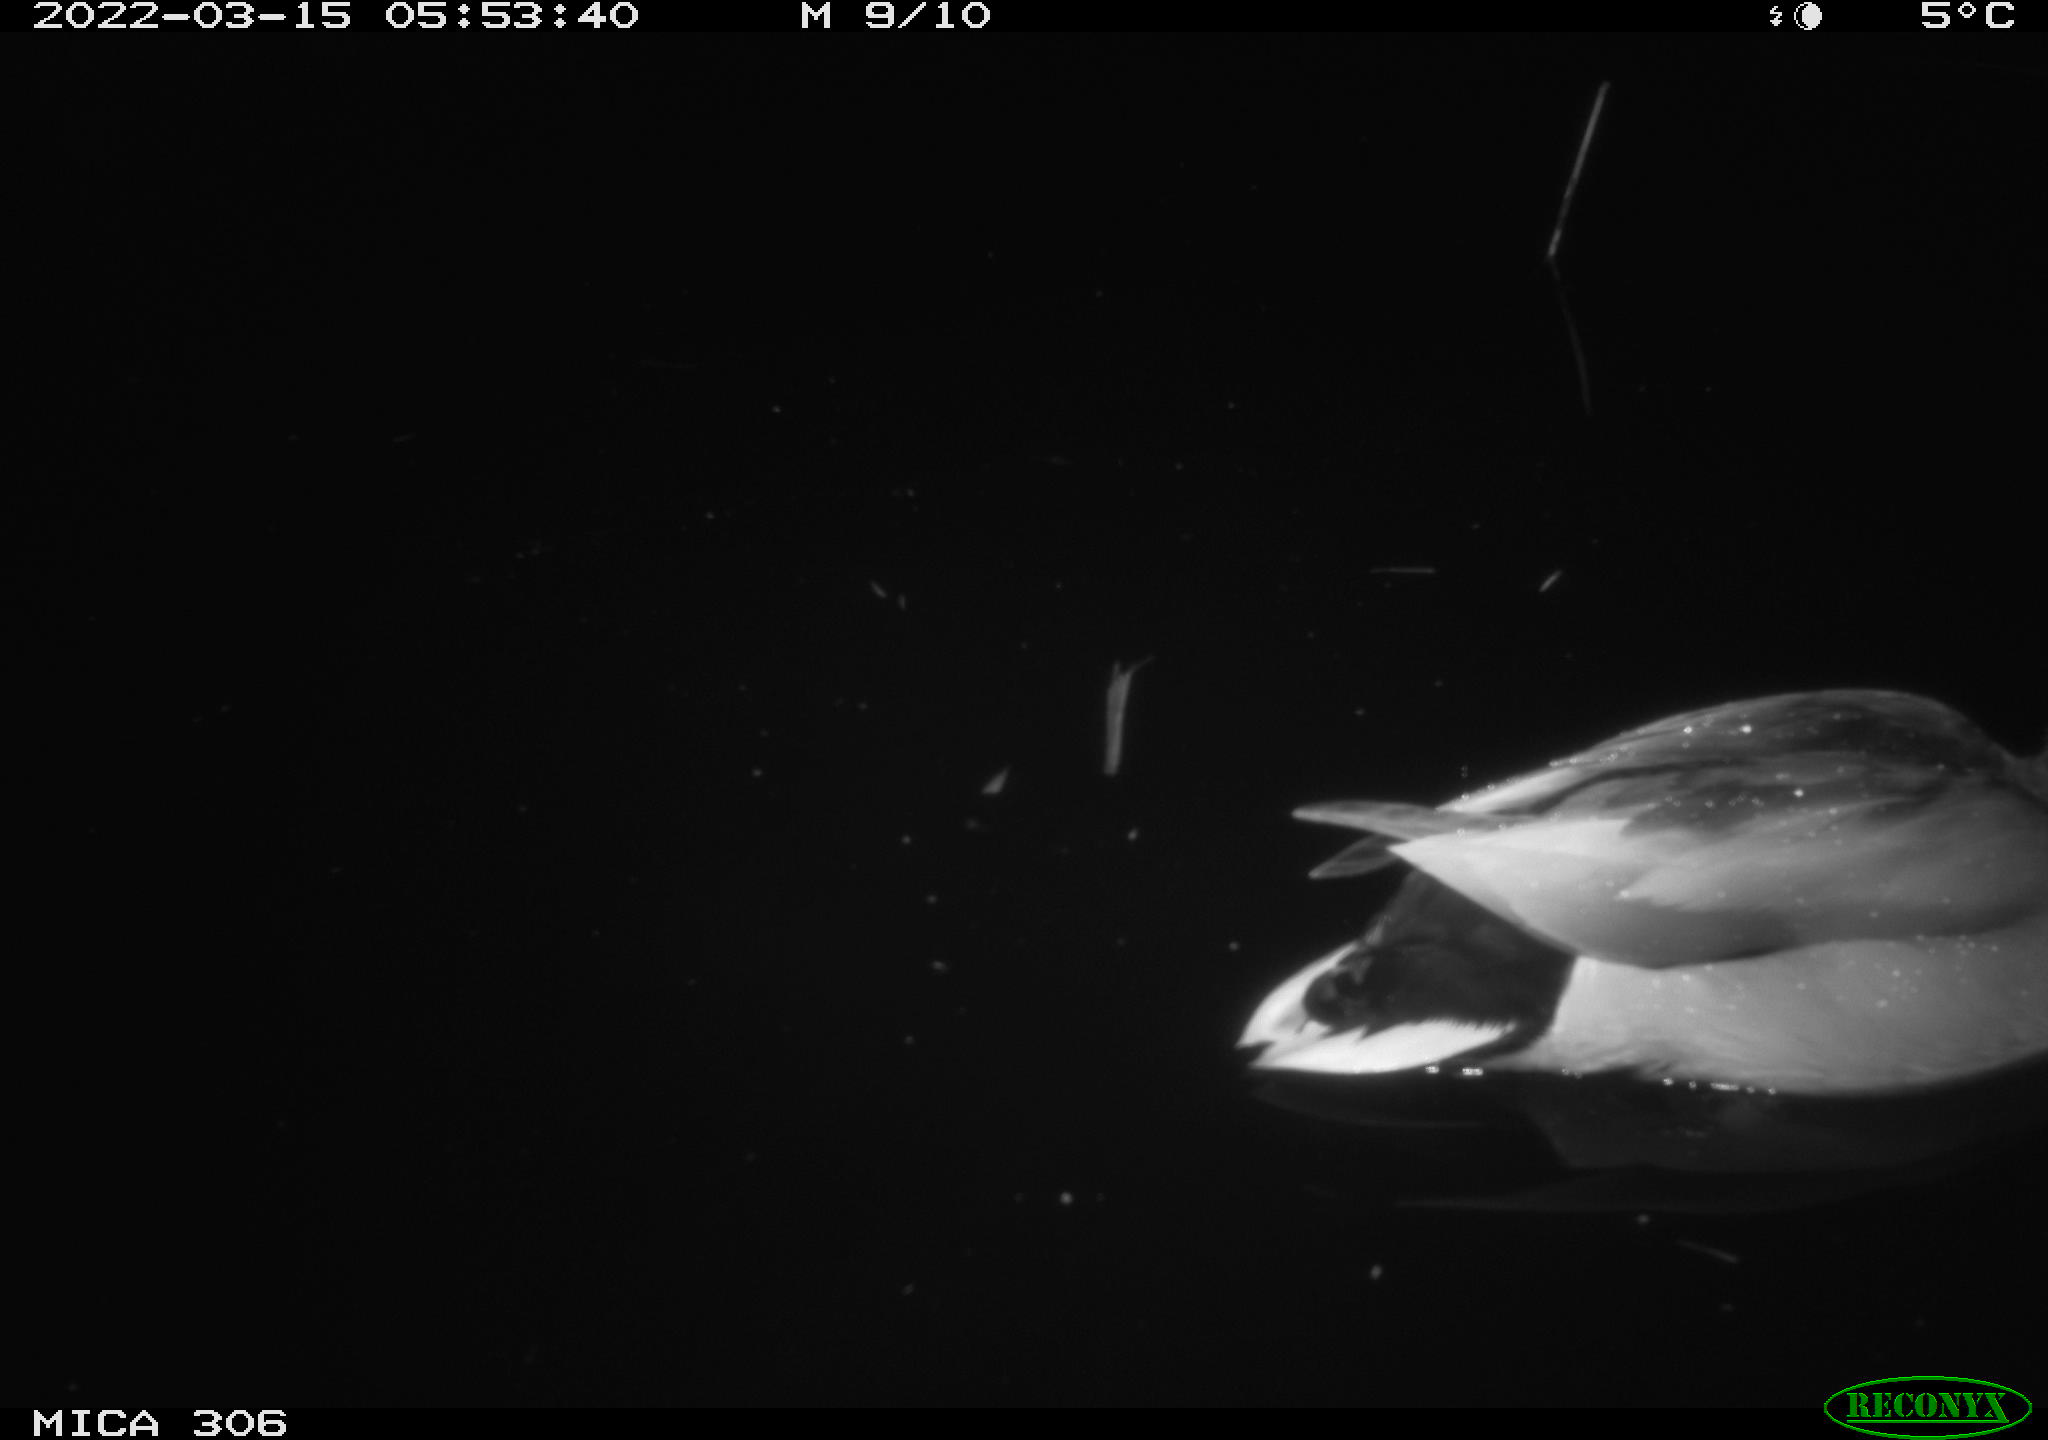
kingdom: Animalia
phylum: Chordata
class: Aves
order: Anseriformes
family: Anatidae
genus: Anas
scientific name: Anas platyrhynchos
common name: Mallard
